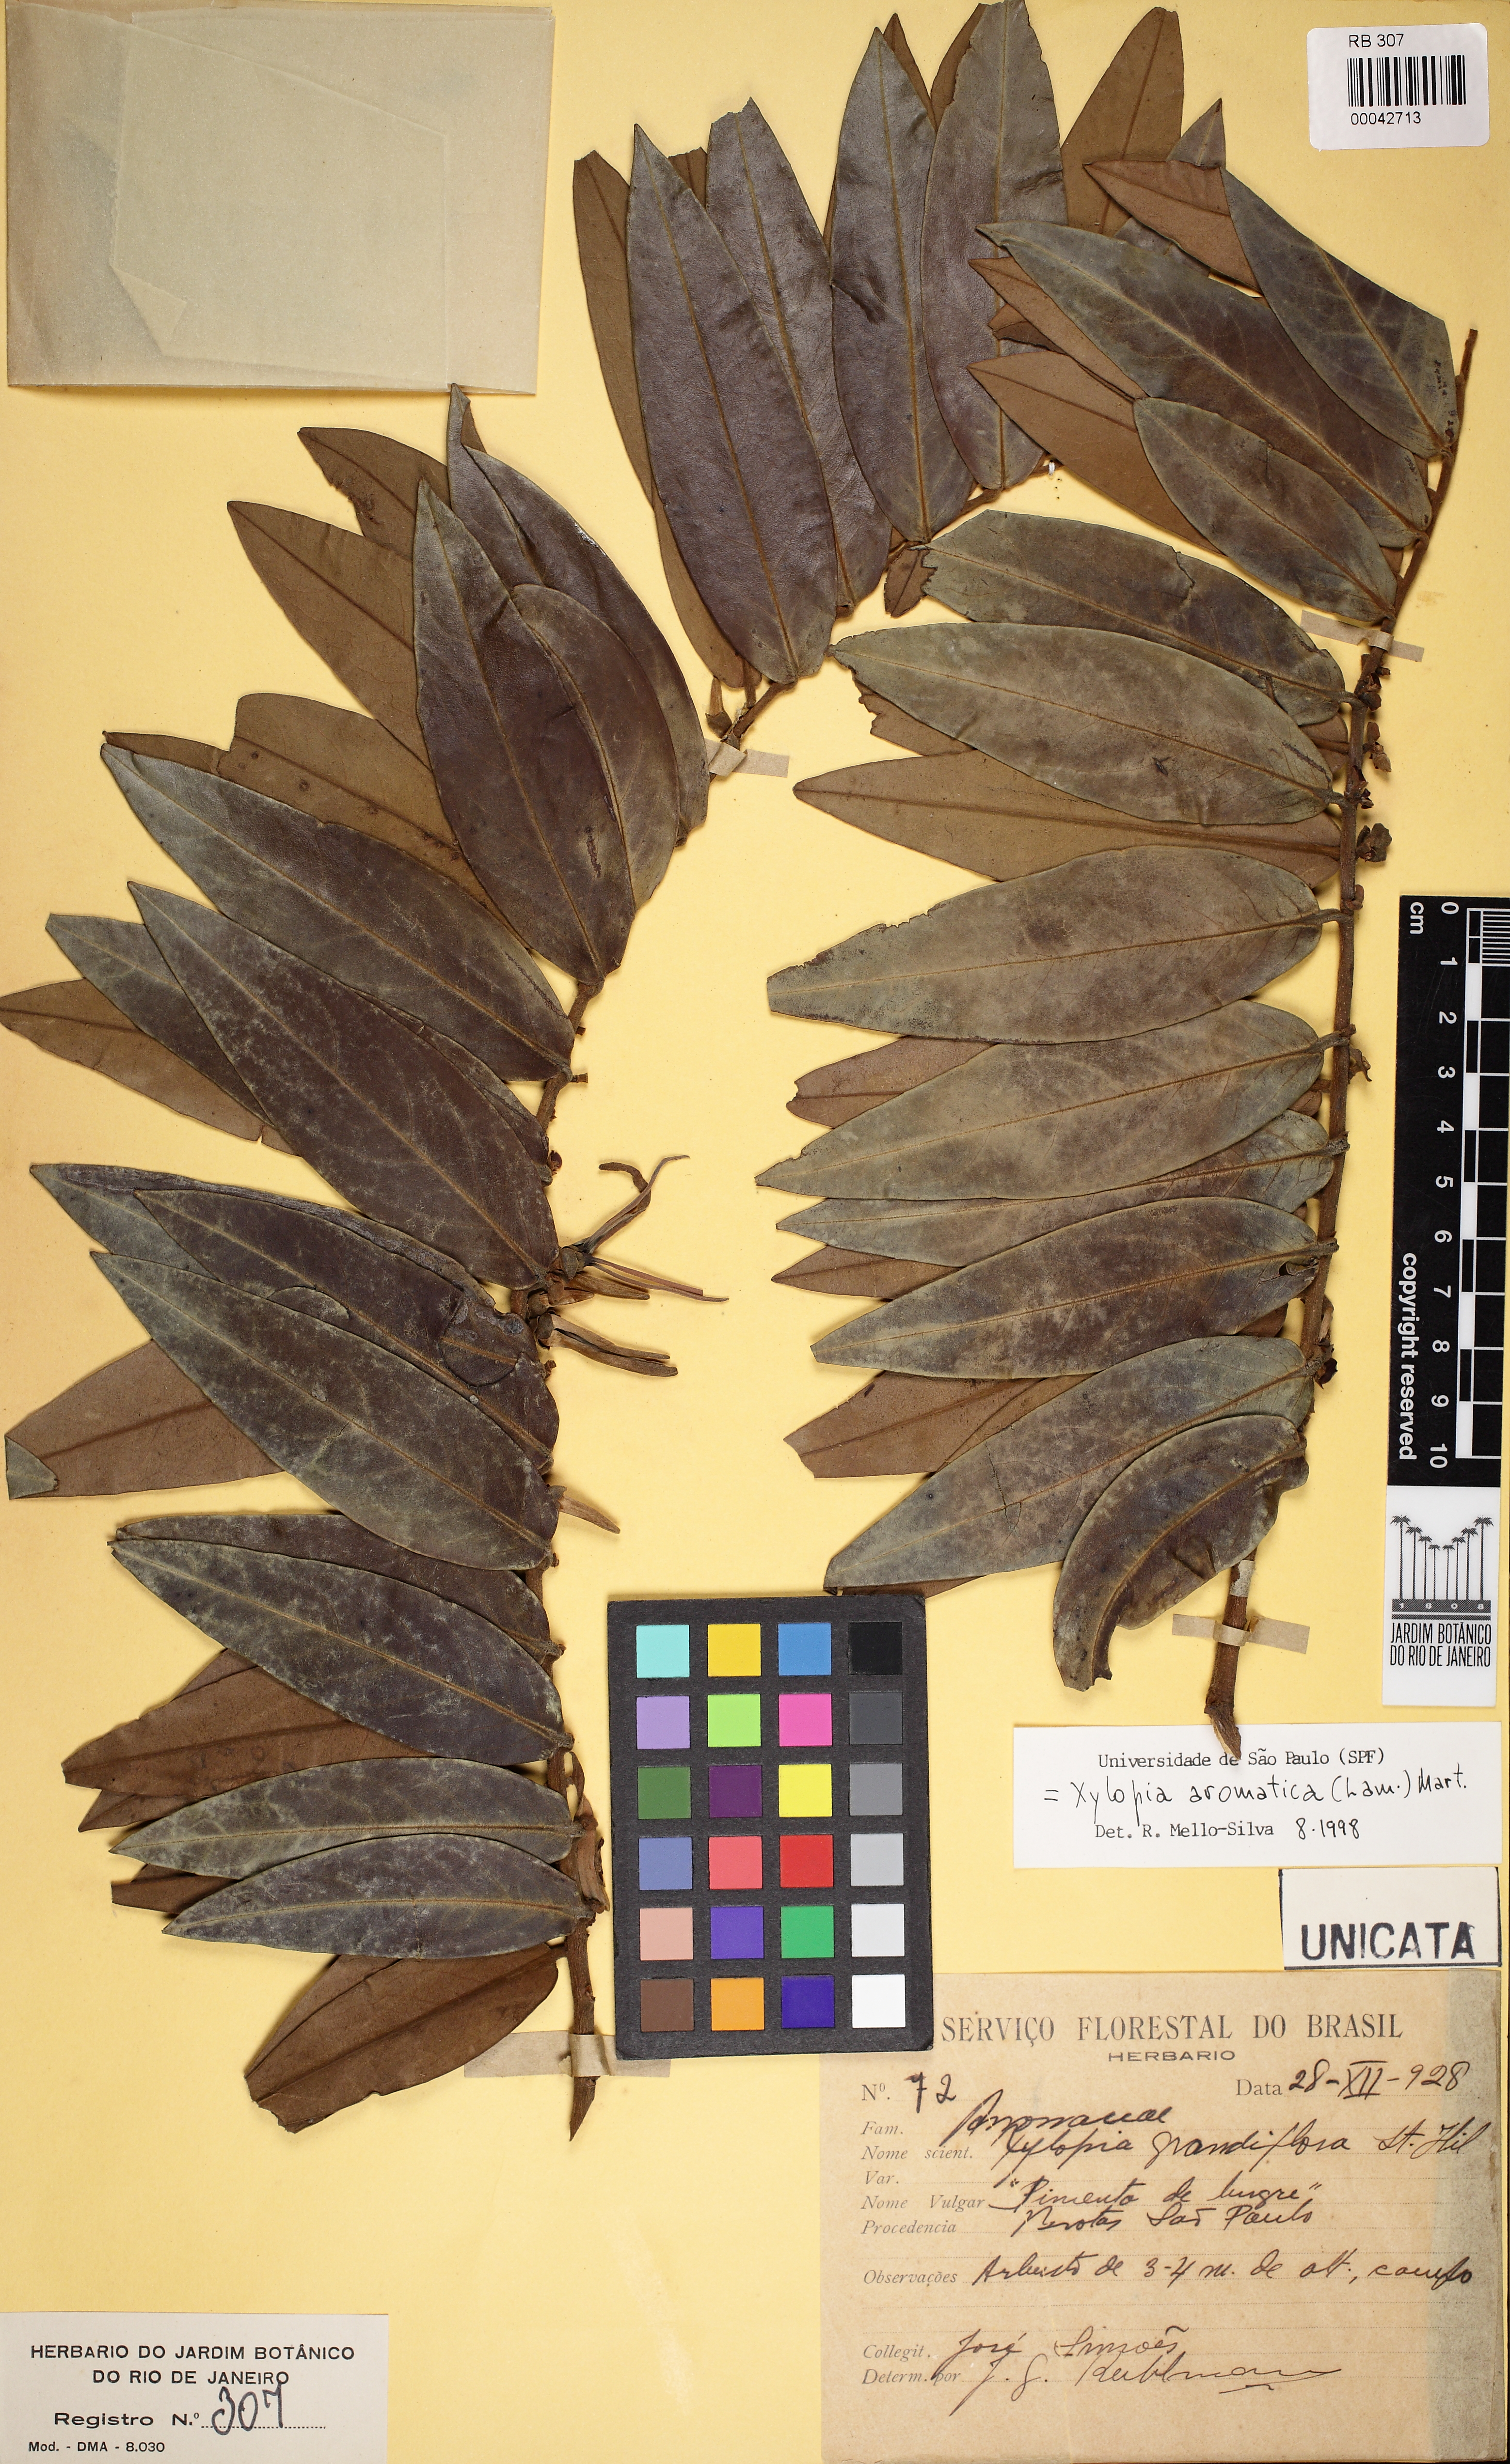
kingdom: Plantae
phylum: Tracheophyta
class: Magnoliopsida
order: Magnoliales
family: Annonaceae
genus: Xylopia
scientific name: Xylopia aromatica
